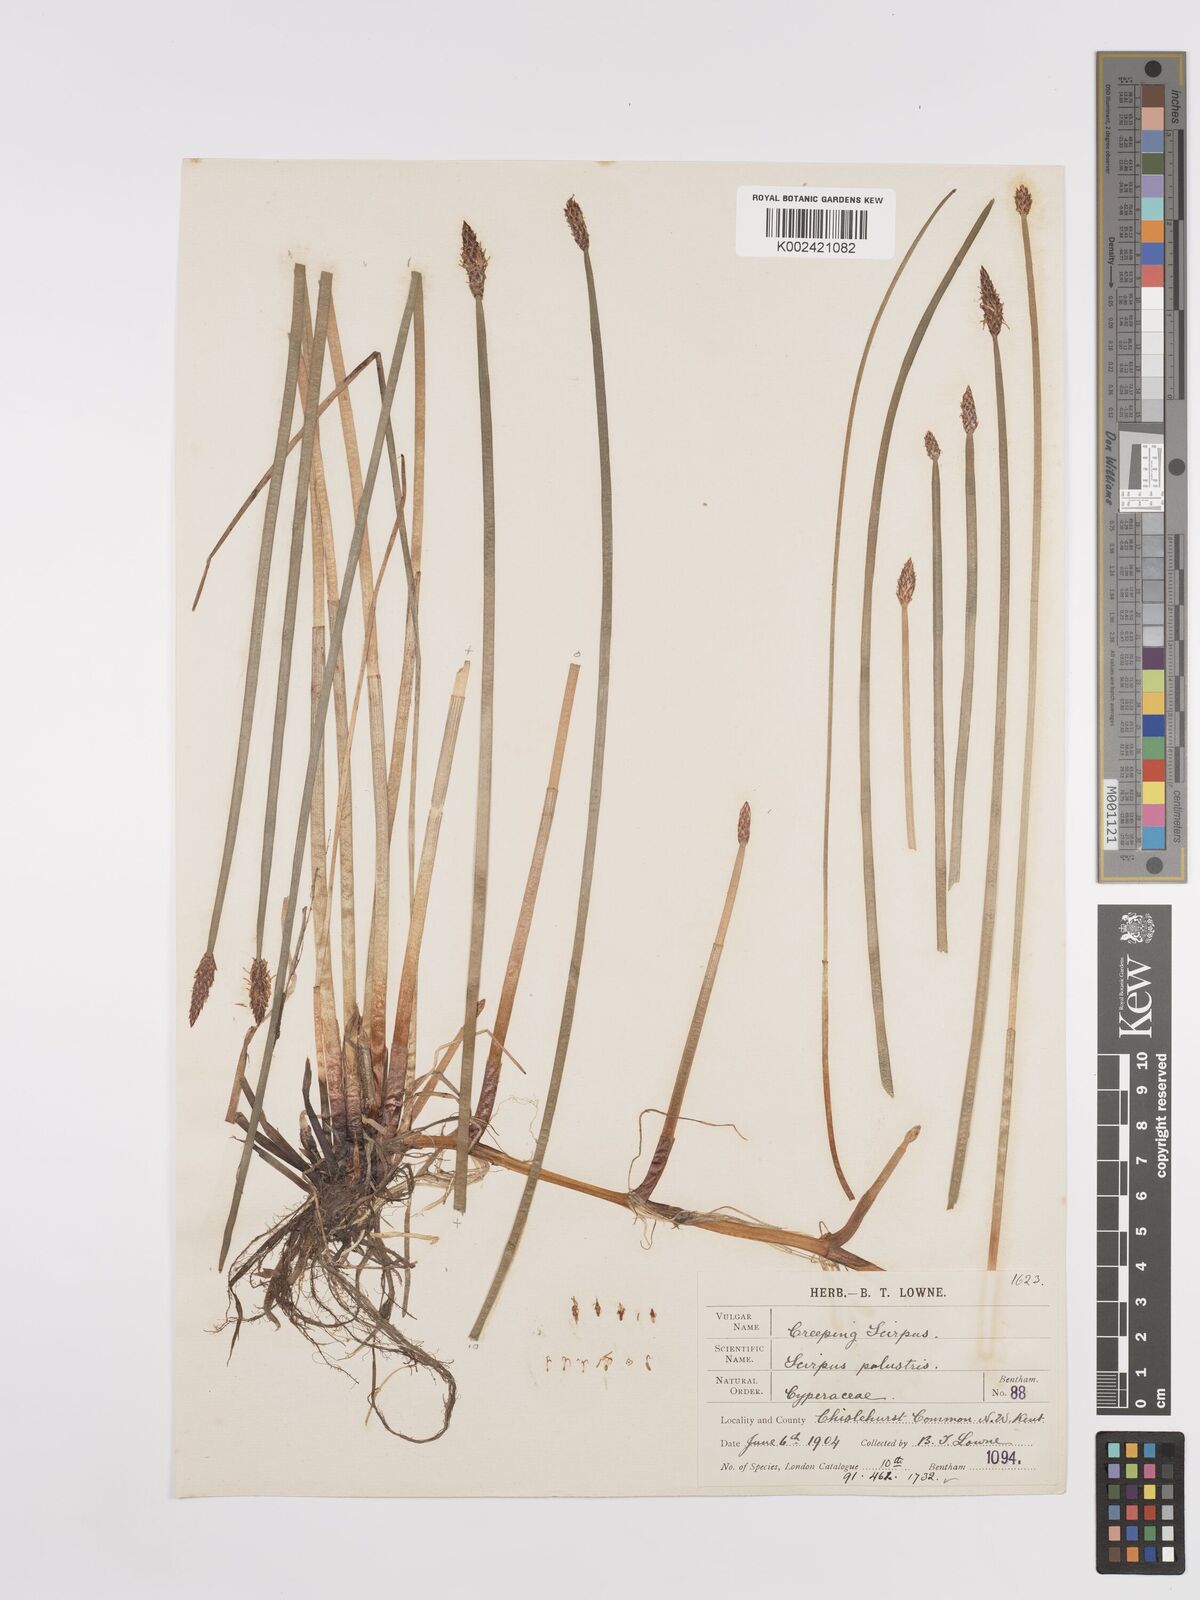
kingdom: Plantae
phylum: Tracheophyta
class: Liliopsida
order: Poales
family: Cyperaceae
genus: Eleocharis
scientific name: Eleocharis palustris
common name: Common spike-rush
